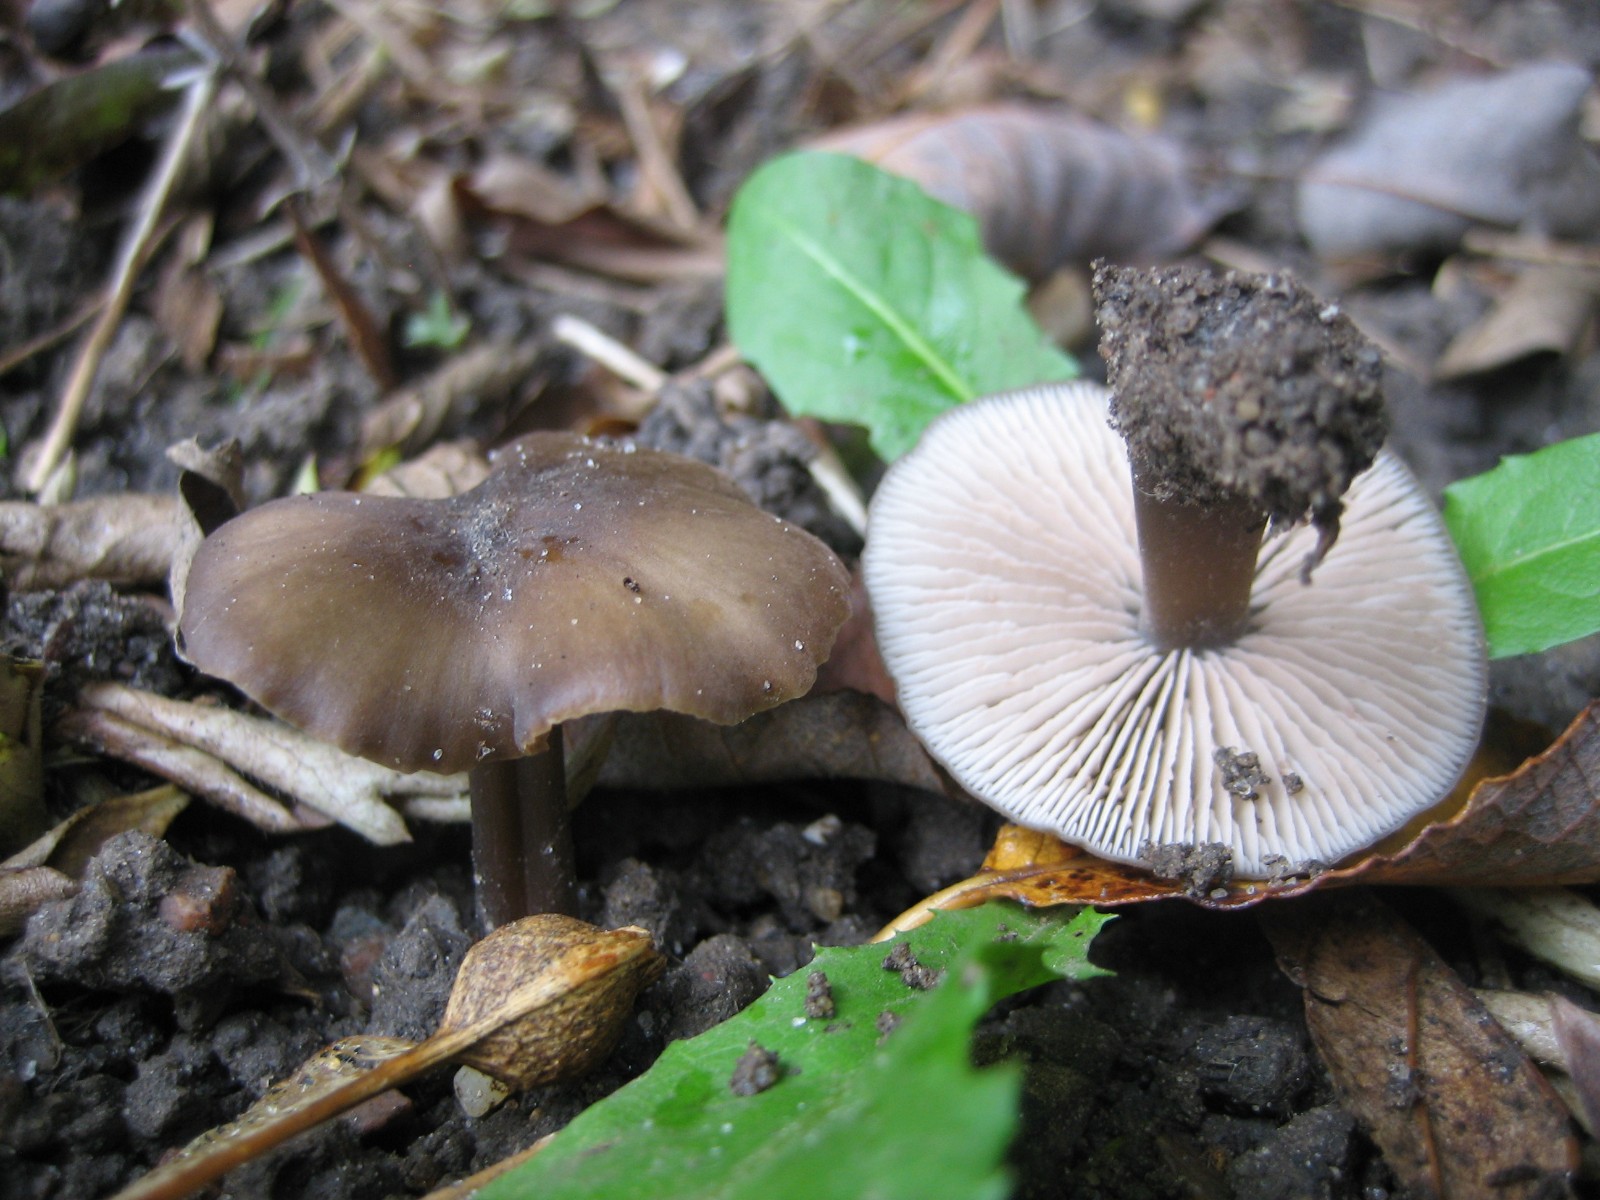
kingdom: Fungi
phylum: Basidiomycota
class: Agaricomycetes
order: Agaricales
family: Entolomataceae
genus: Entoloma
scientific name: Entoloma
